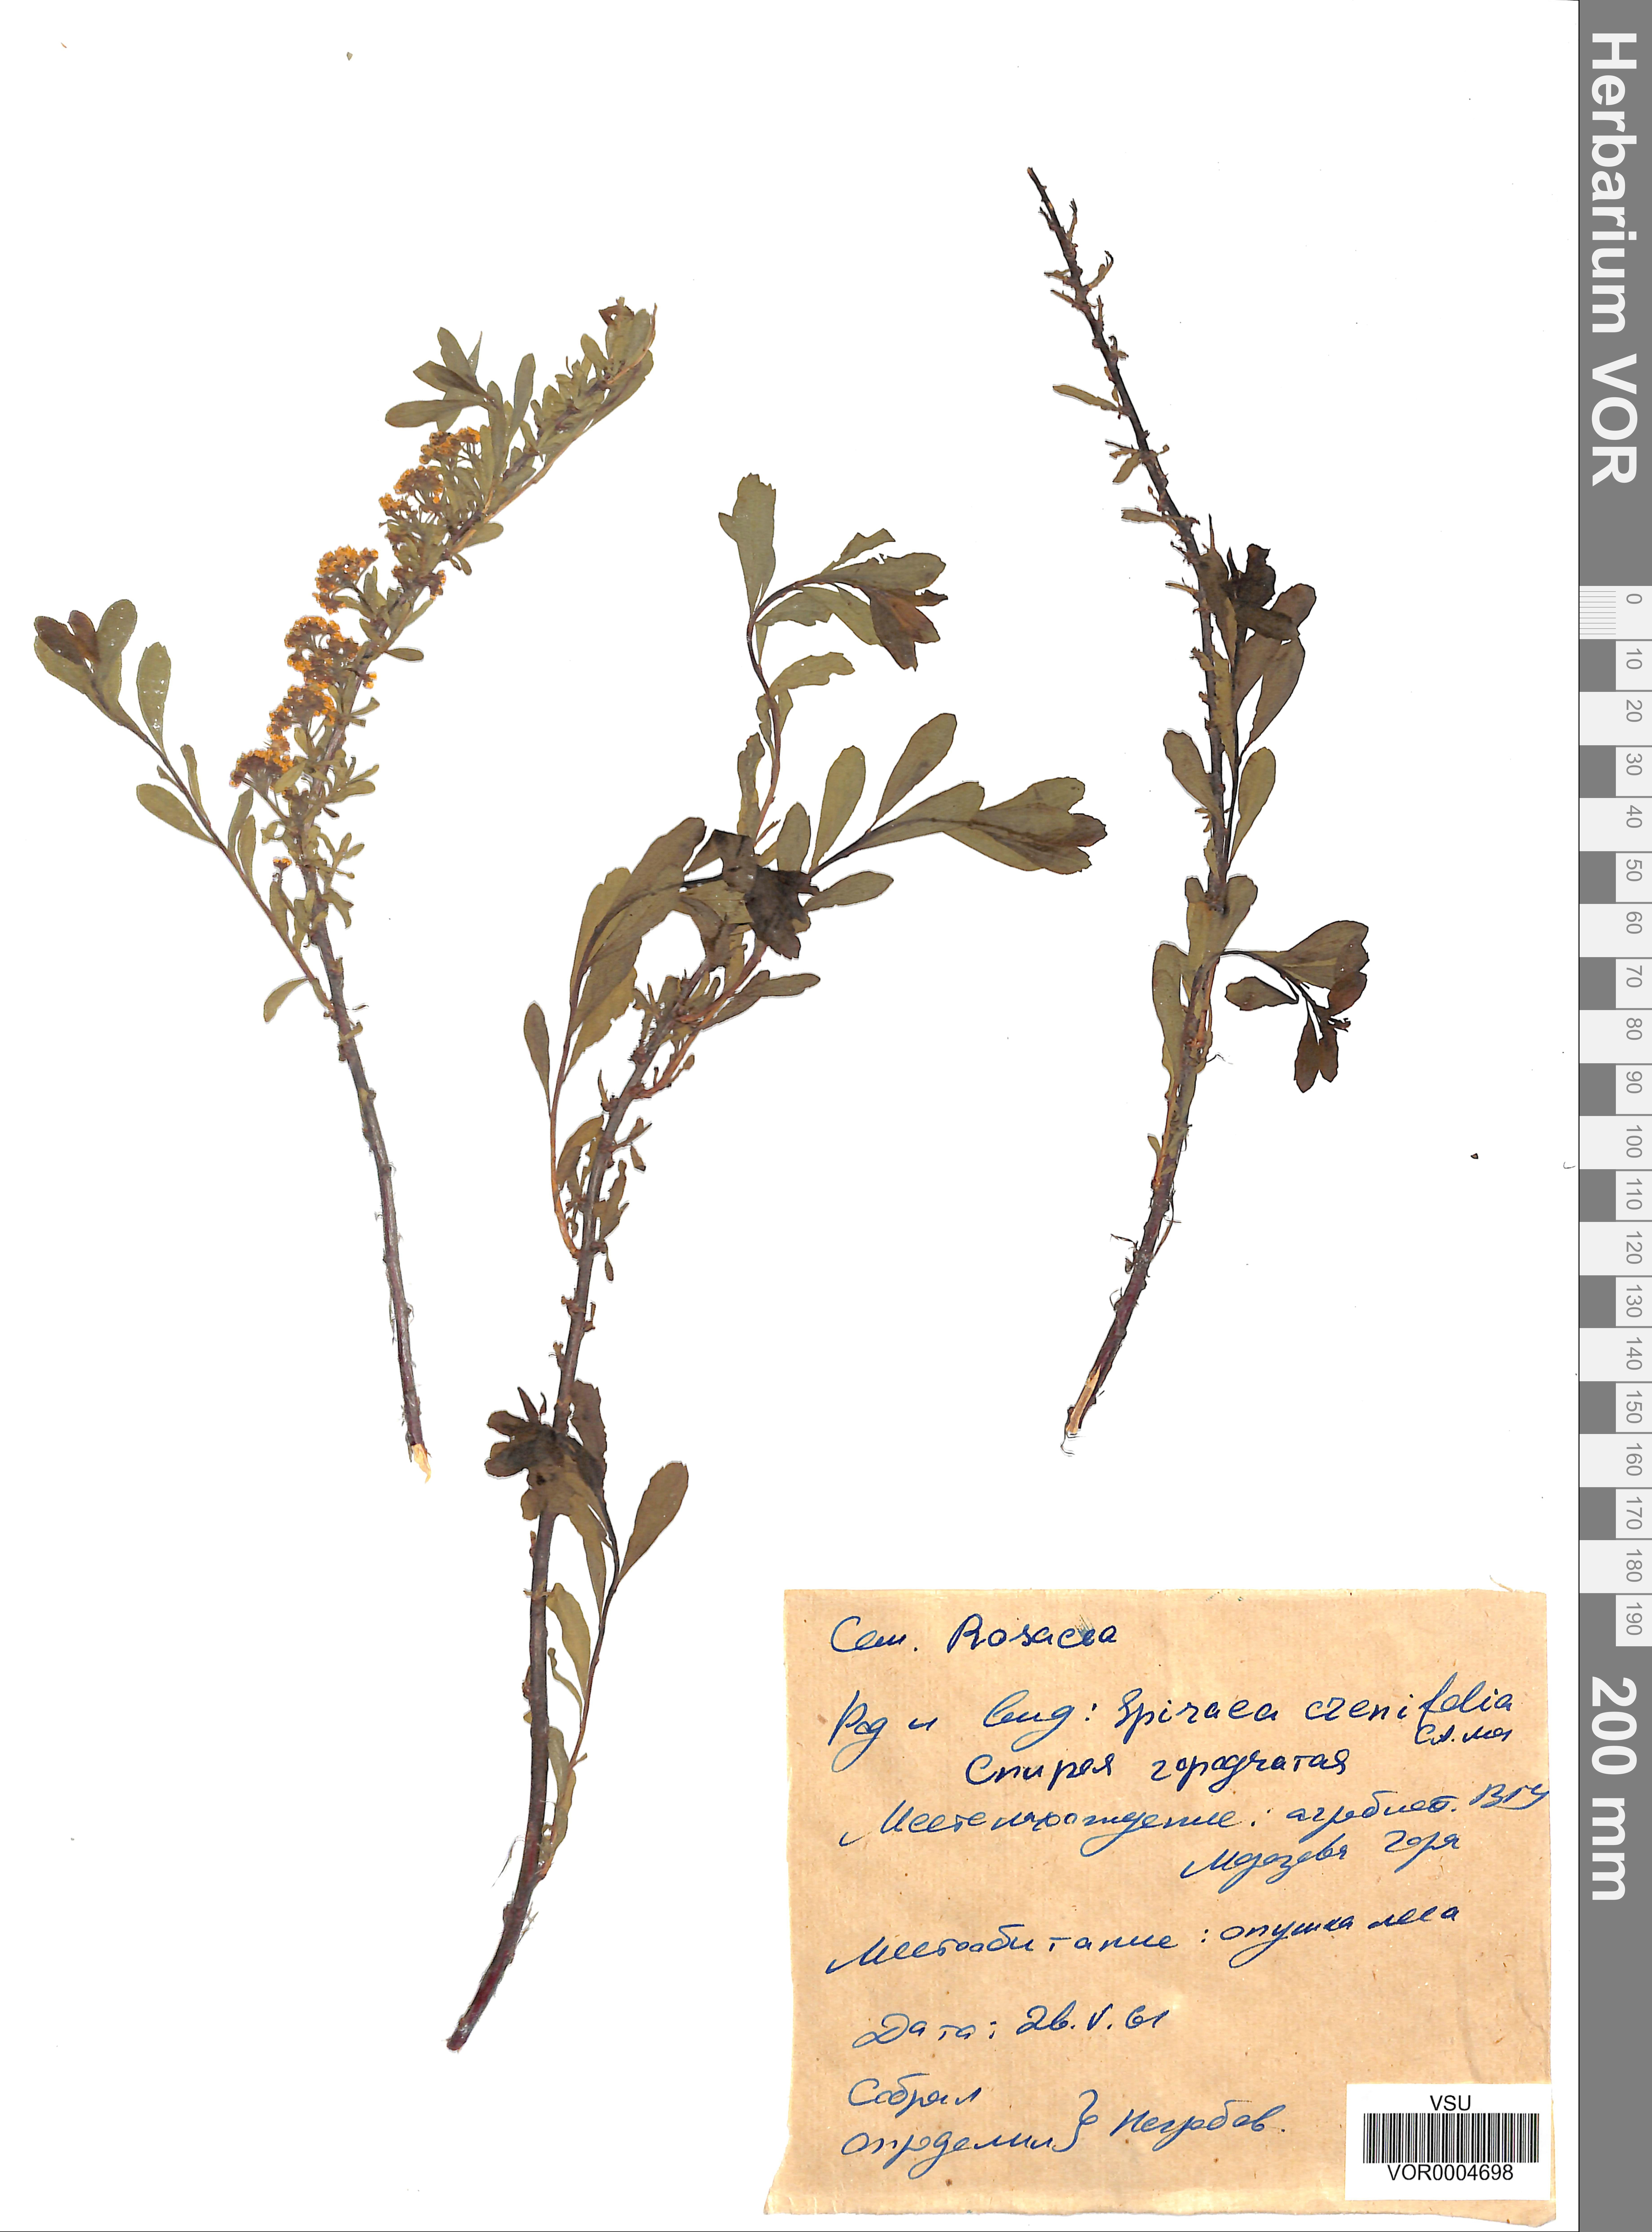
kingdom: Plantae
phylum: Tracheophyta
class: Magnoliopsida
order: Rosales
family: Rosaceae
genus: Spiraea
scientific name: Spiraea crenata
